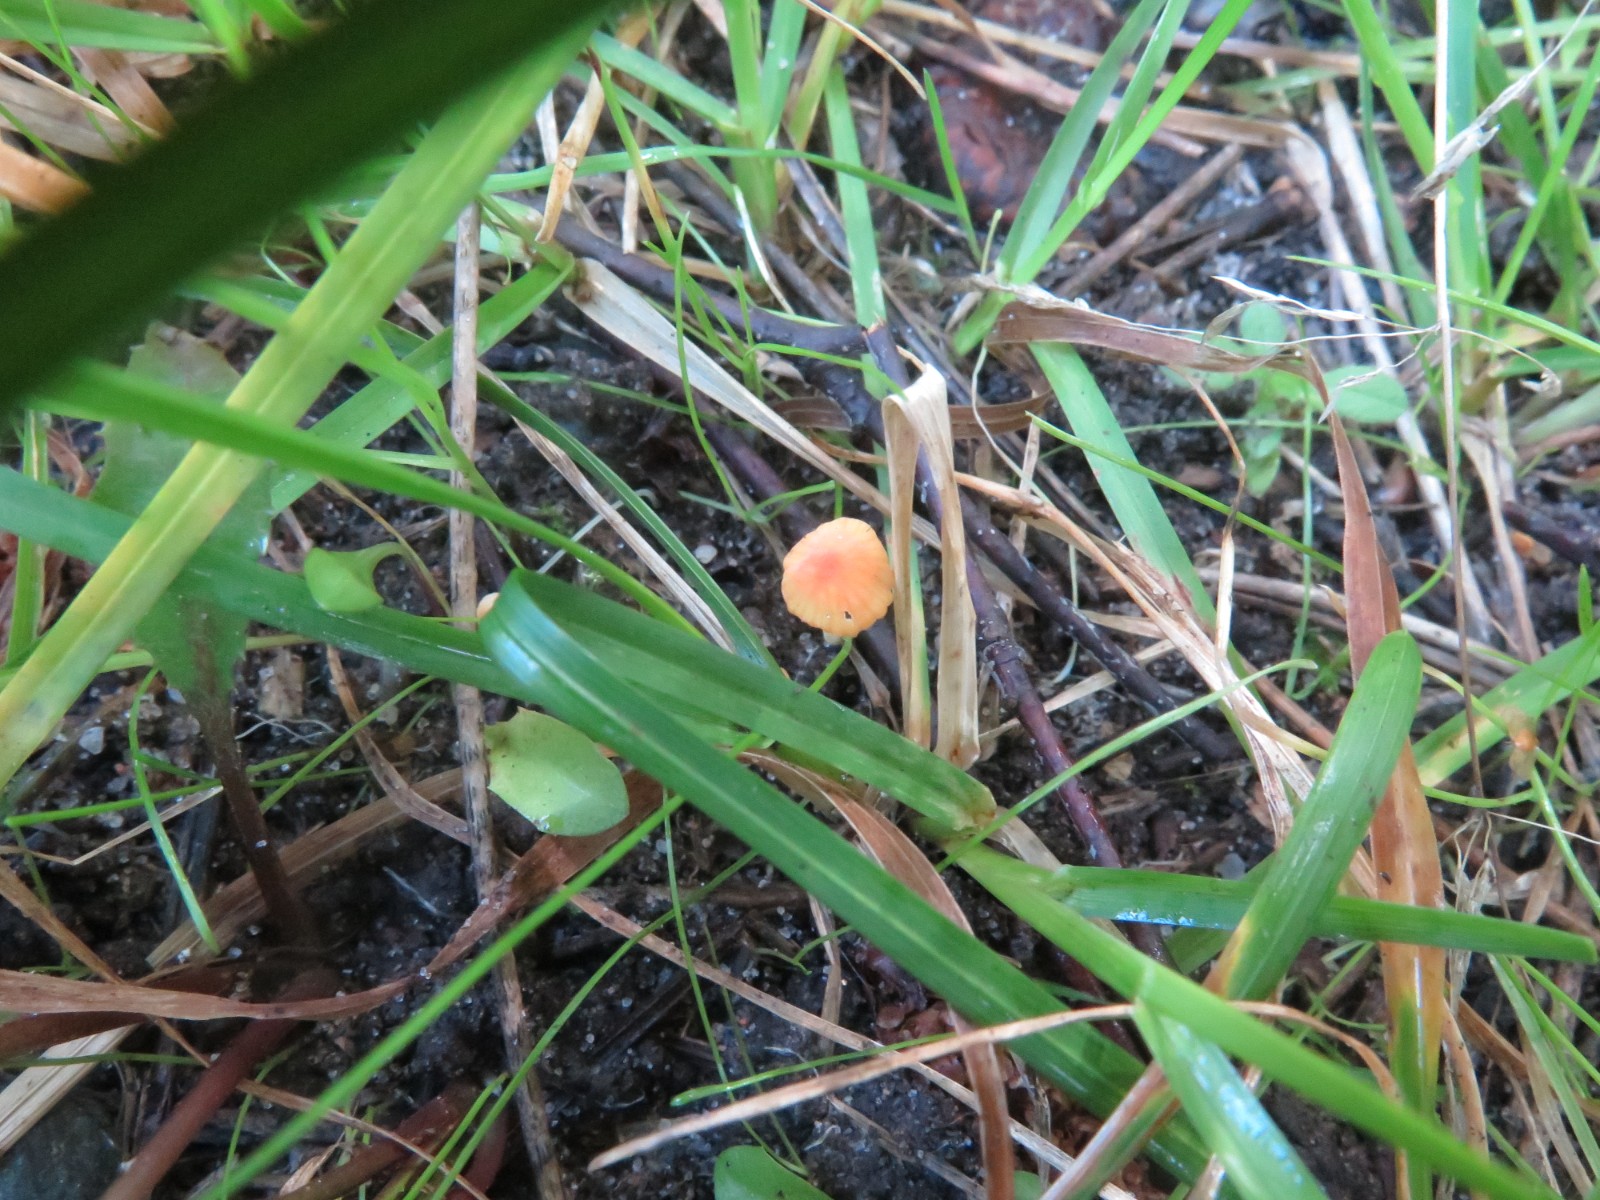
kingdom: Fungi
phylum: Basidiomycota
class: Agaricomycetes
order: Agaricales
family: Mycenaceae
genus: Mycena
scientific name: Mycena acicula
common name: orange huesvamp
